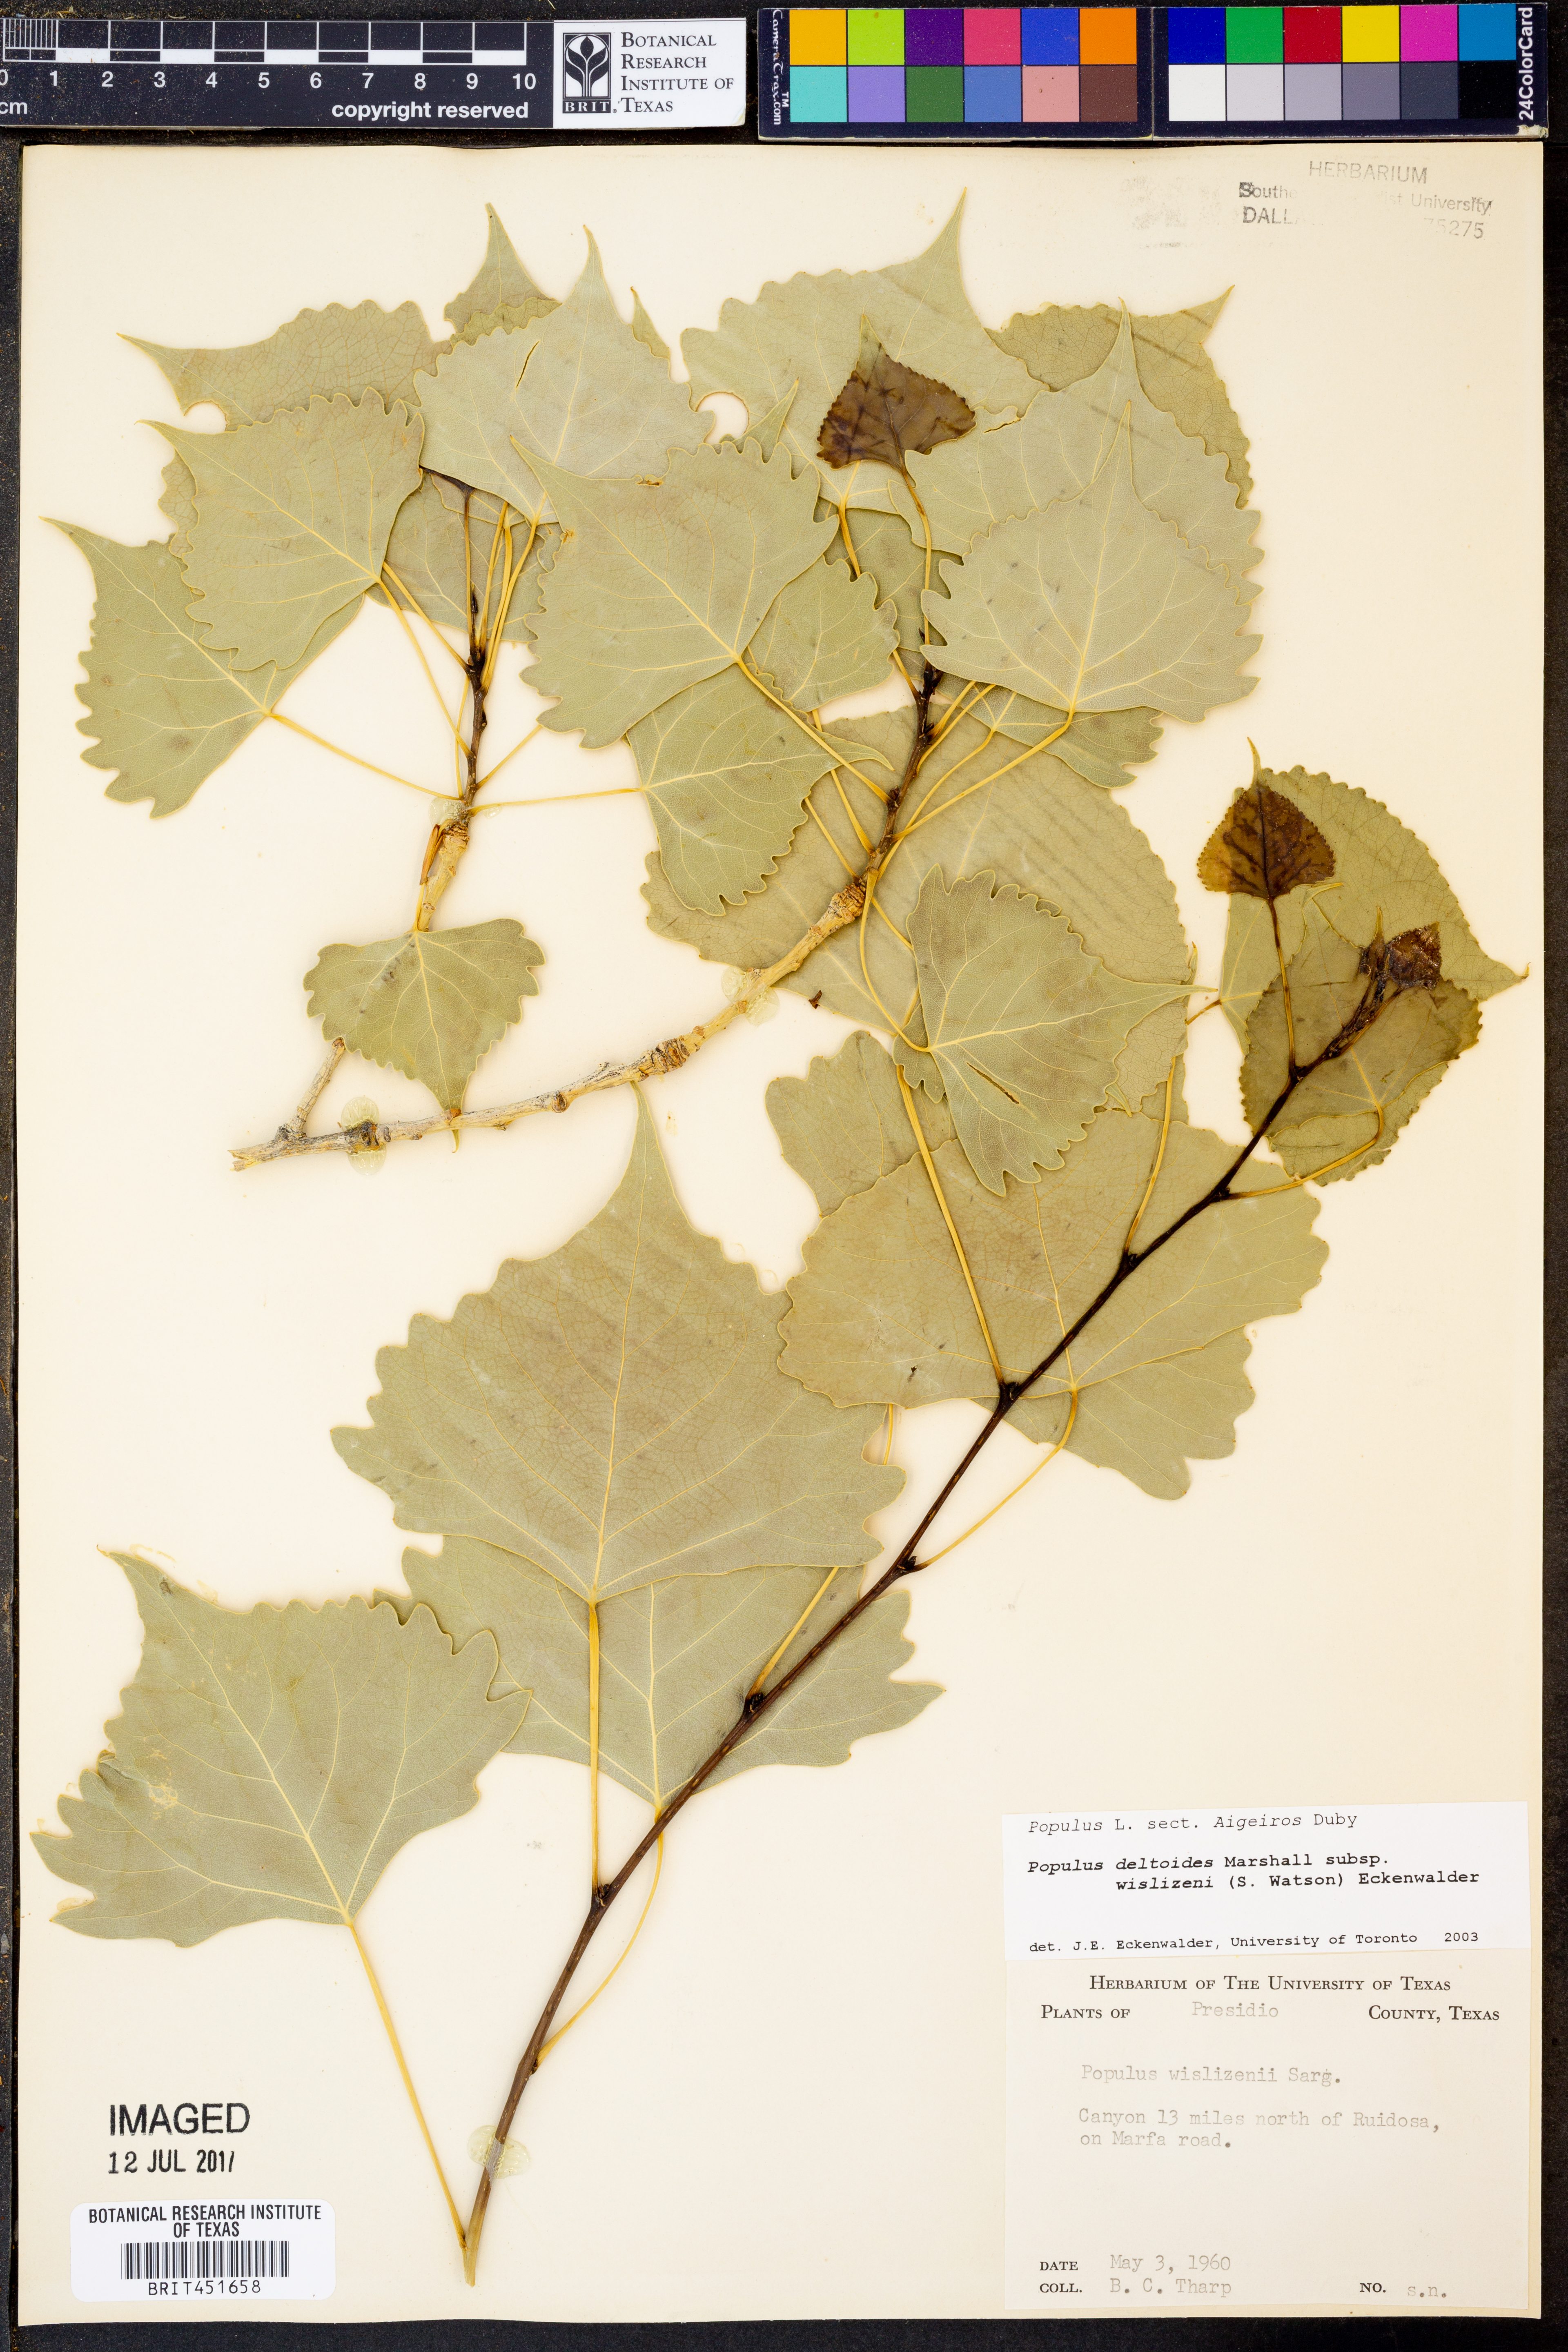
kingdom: Plantae
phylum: Tracheophyta
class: Magnoliopsida
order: Malpighiales
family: Salicaceae
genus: Populus
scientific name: Populus deltoides
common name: Eastern cottonwood
